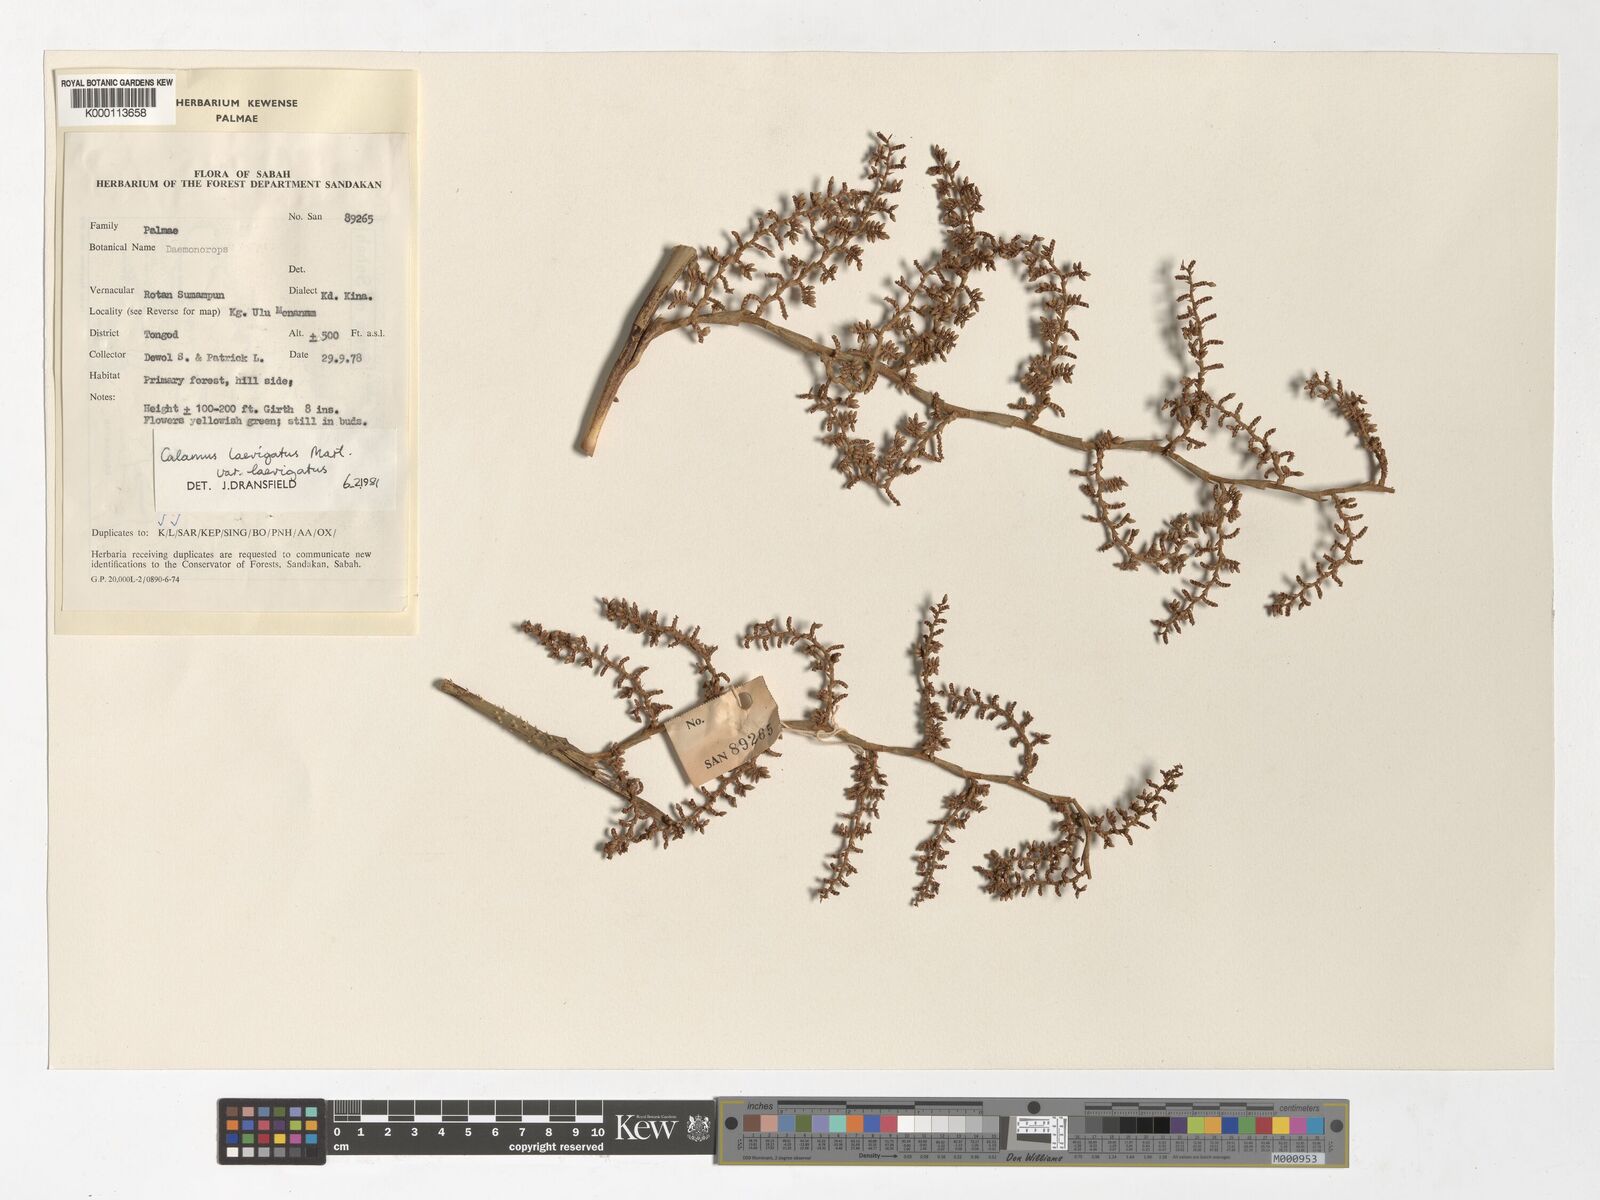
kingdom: Plantae
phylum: Tracheophyta
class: Liliopsida
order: Arecales
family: Arecaceae
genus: Calamus
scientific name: Calamus
